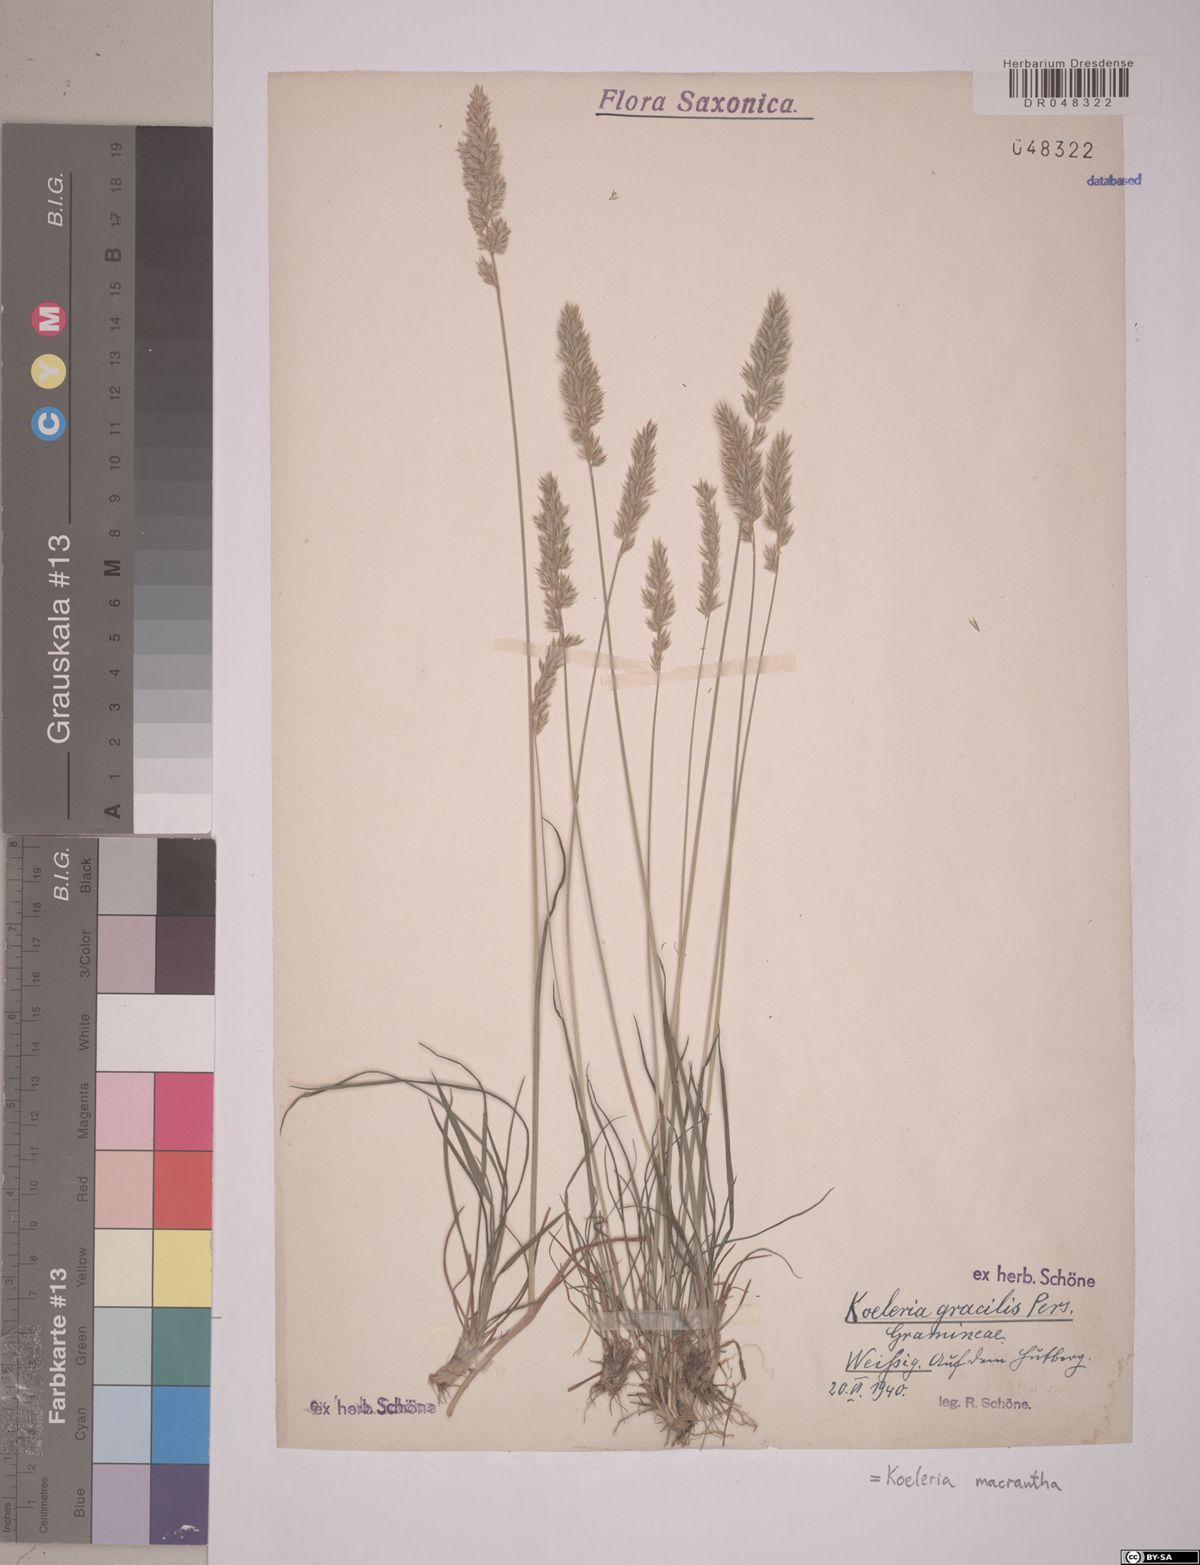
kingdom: Plantae
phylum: Tracheophyta
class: Liliopsida
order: Poales
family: Poaceae
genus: Koeleria
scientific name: Koeleria macrantha
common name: Crested hair-grass
